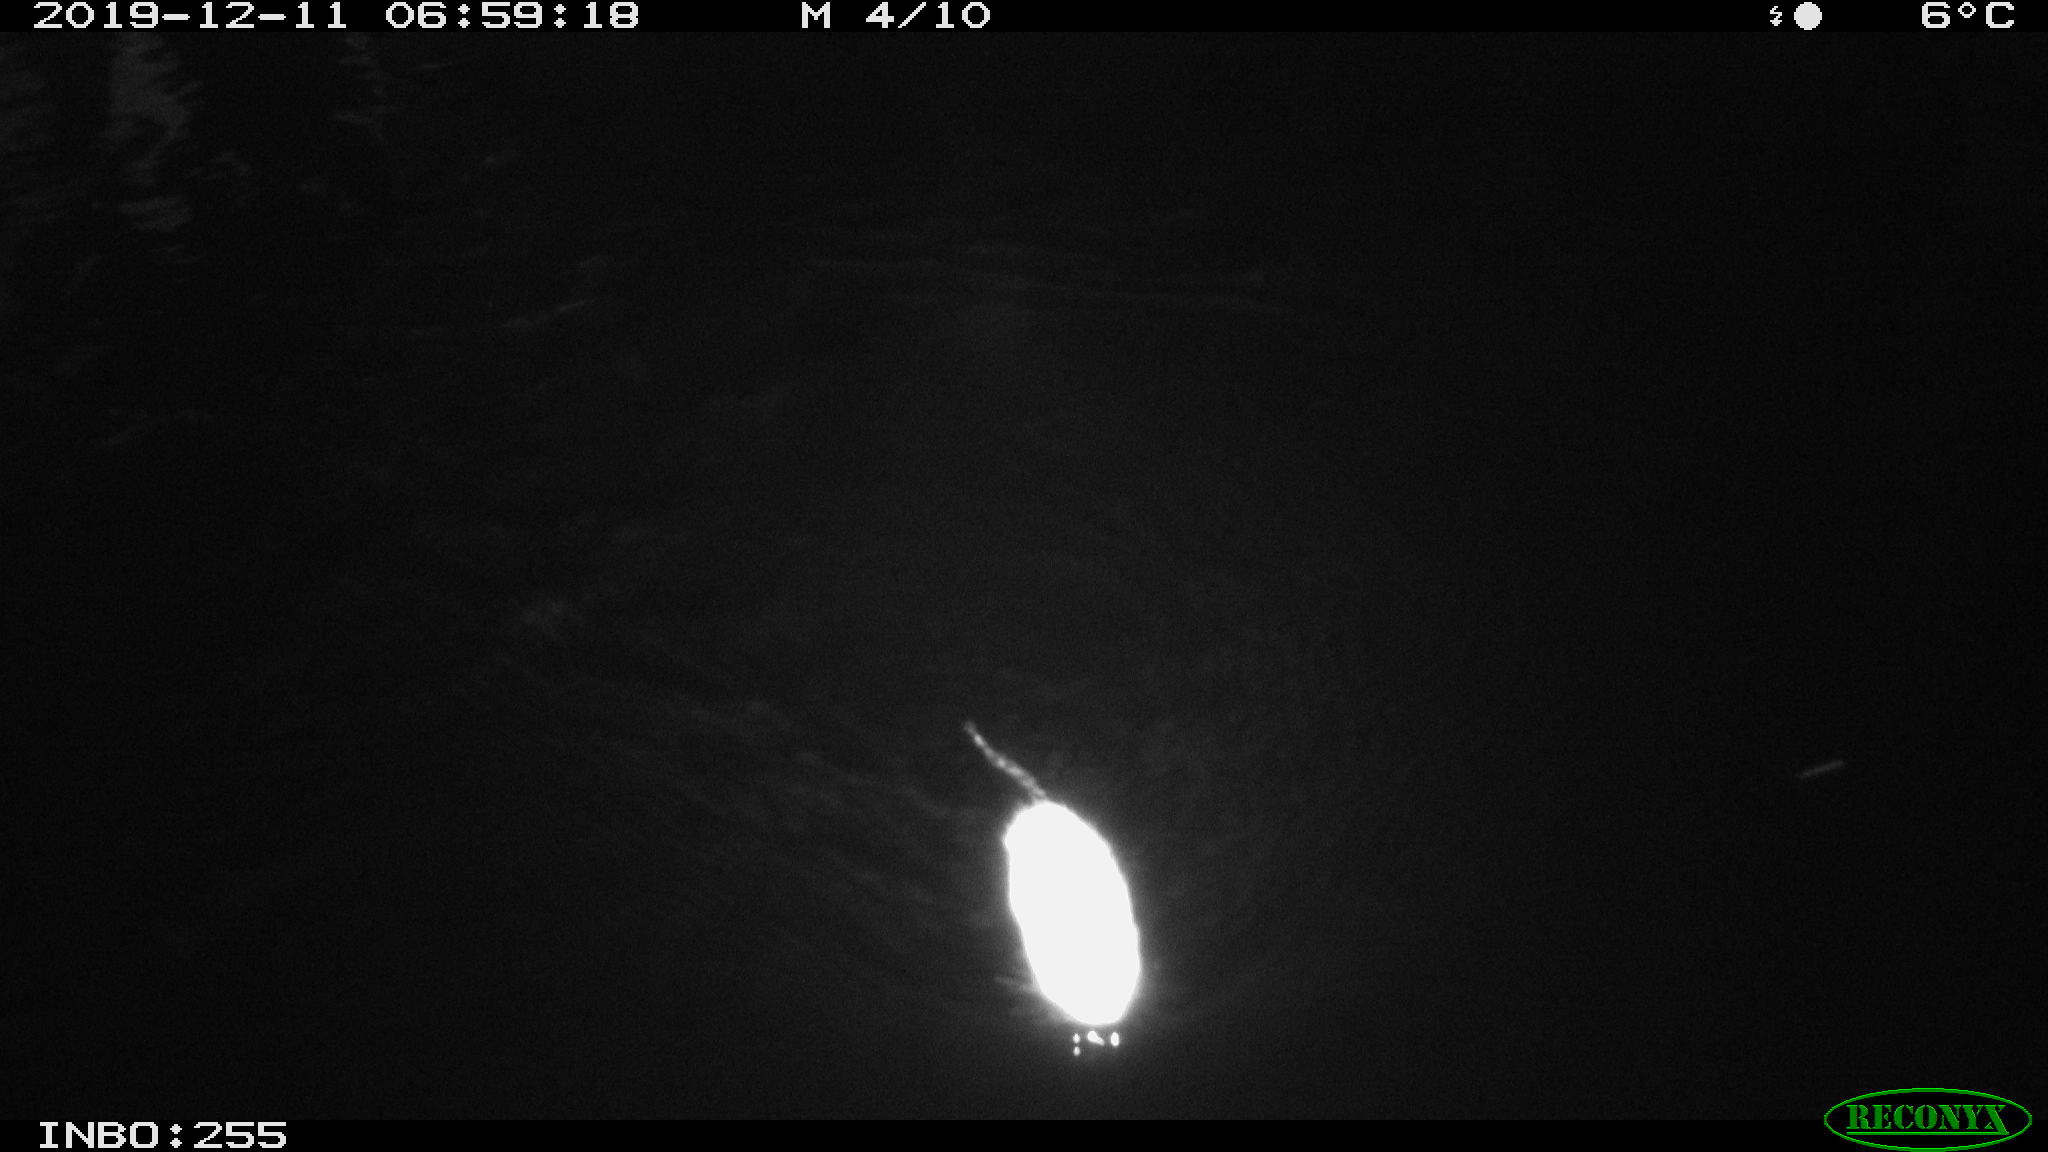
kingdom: Animalia
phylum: Chordata
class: Mammalia
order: Rodentia
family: Muridae
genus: Rattus
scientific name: Rattus norvegicus
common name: Brown rat
